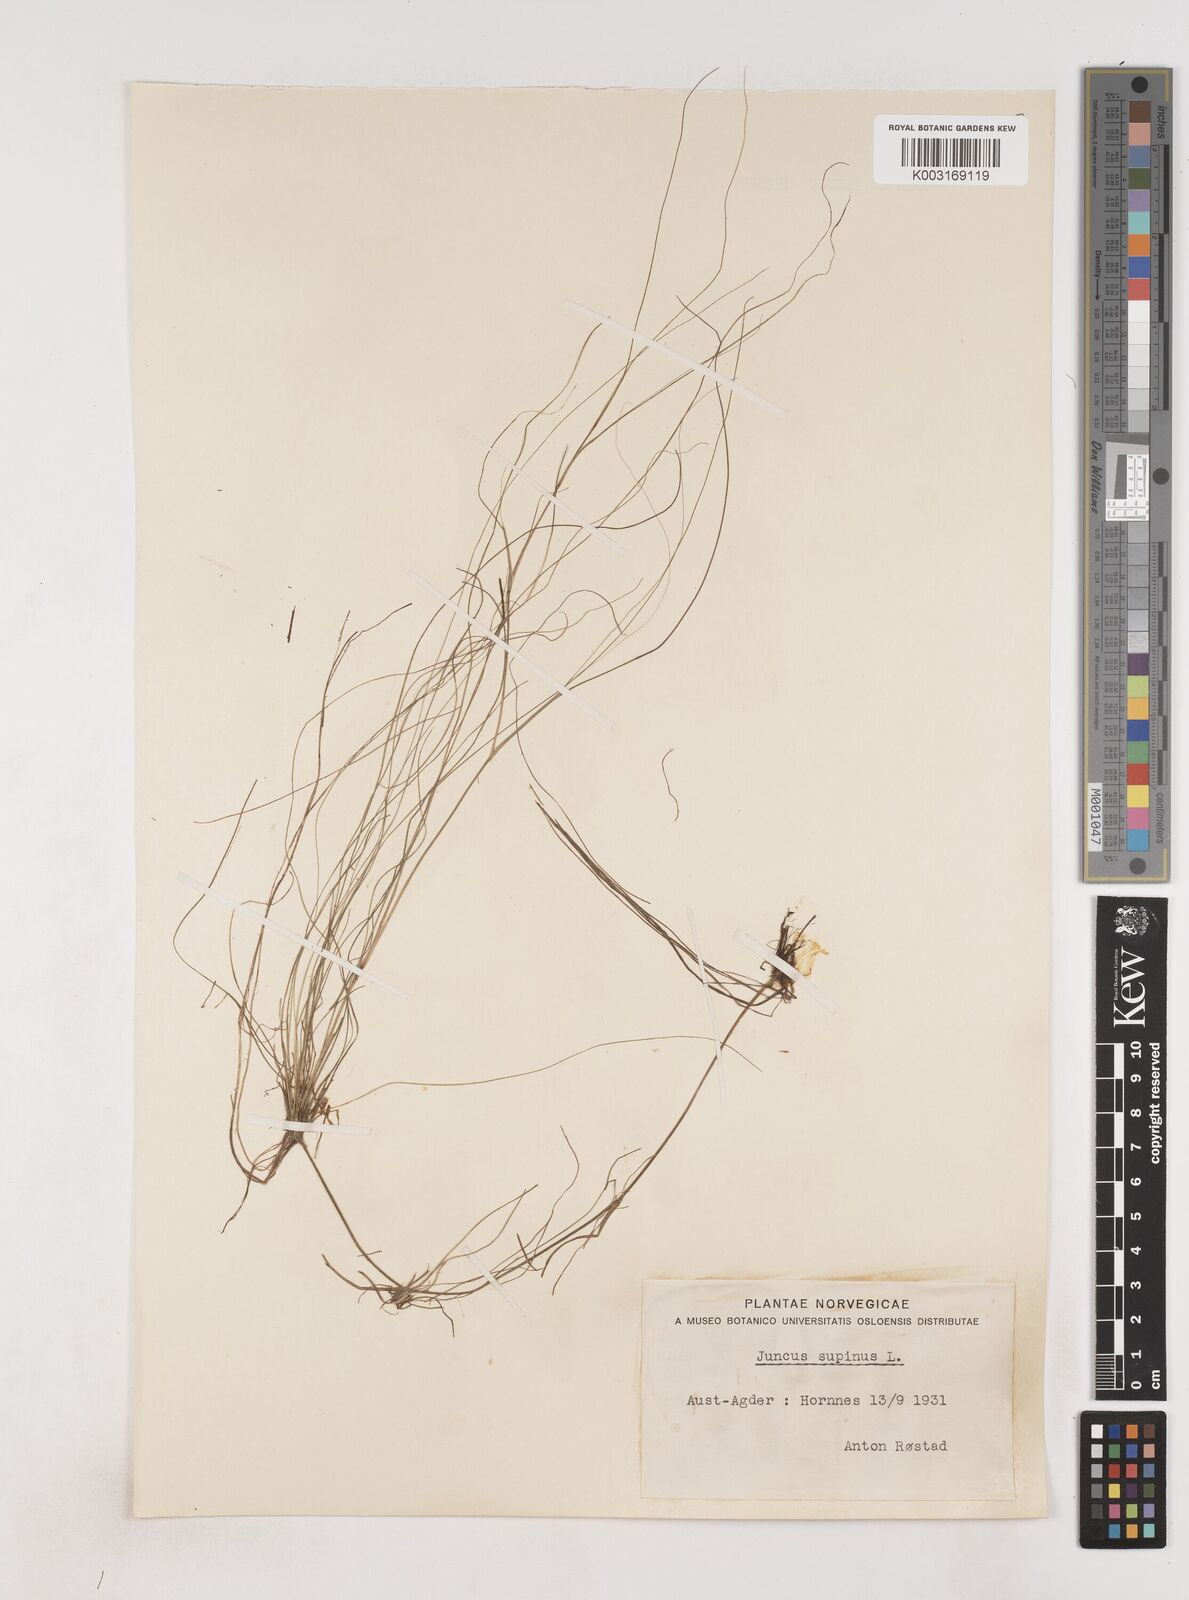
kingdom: Plantae
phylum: Tracheophyta
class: Liliopsida
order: Poales
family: Juncaceae
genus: Juncus
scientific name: Juncus bulbosus
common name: Bulbous rush
